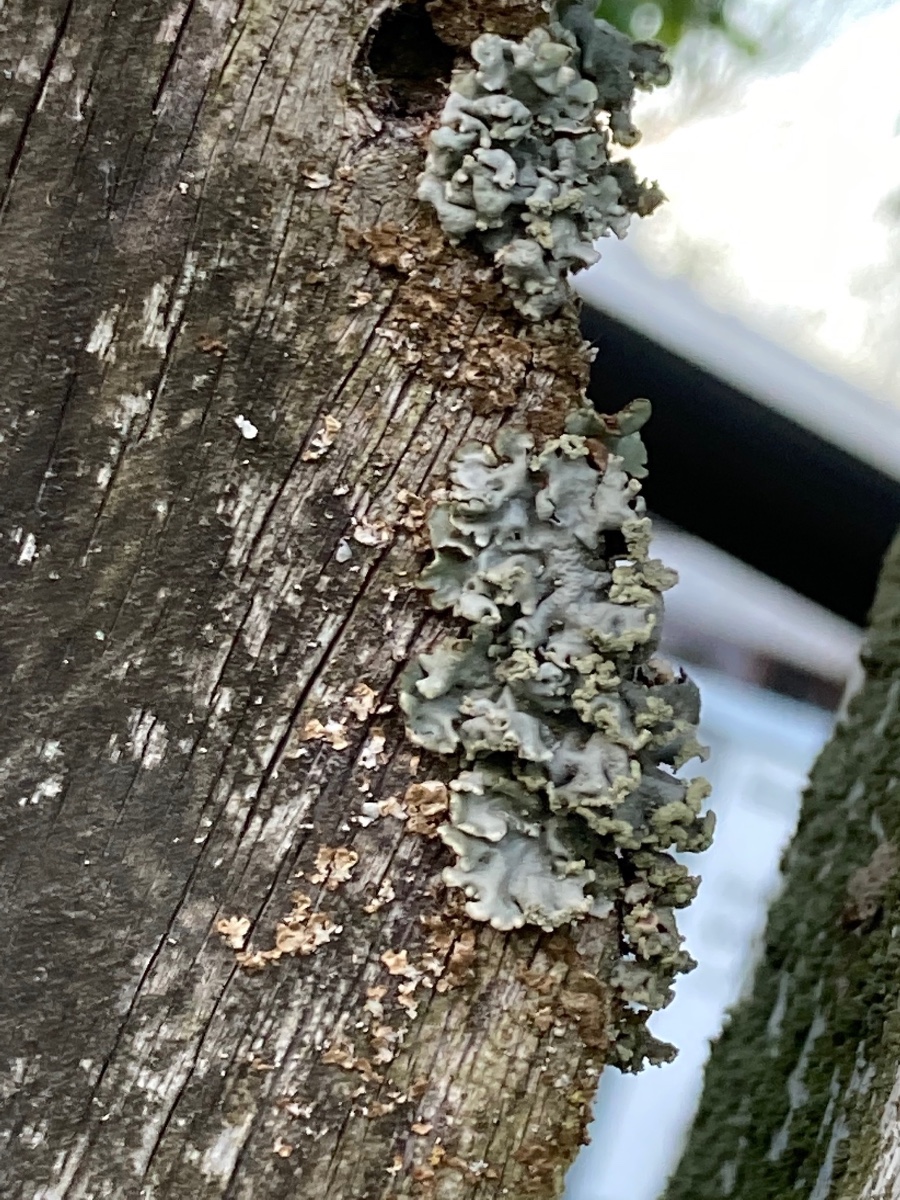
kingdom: Fungi
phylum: Ascomycota
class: Lecanoromycetes
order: Lecanorales
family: Parmeliaceae
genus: Hypogymnia
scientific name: Hypogymnia physodes
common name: almindelig kvistlav
